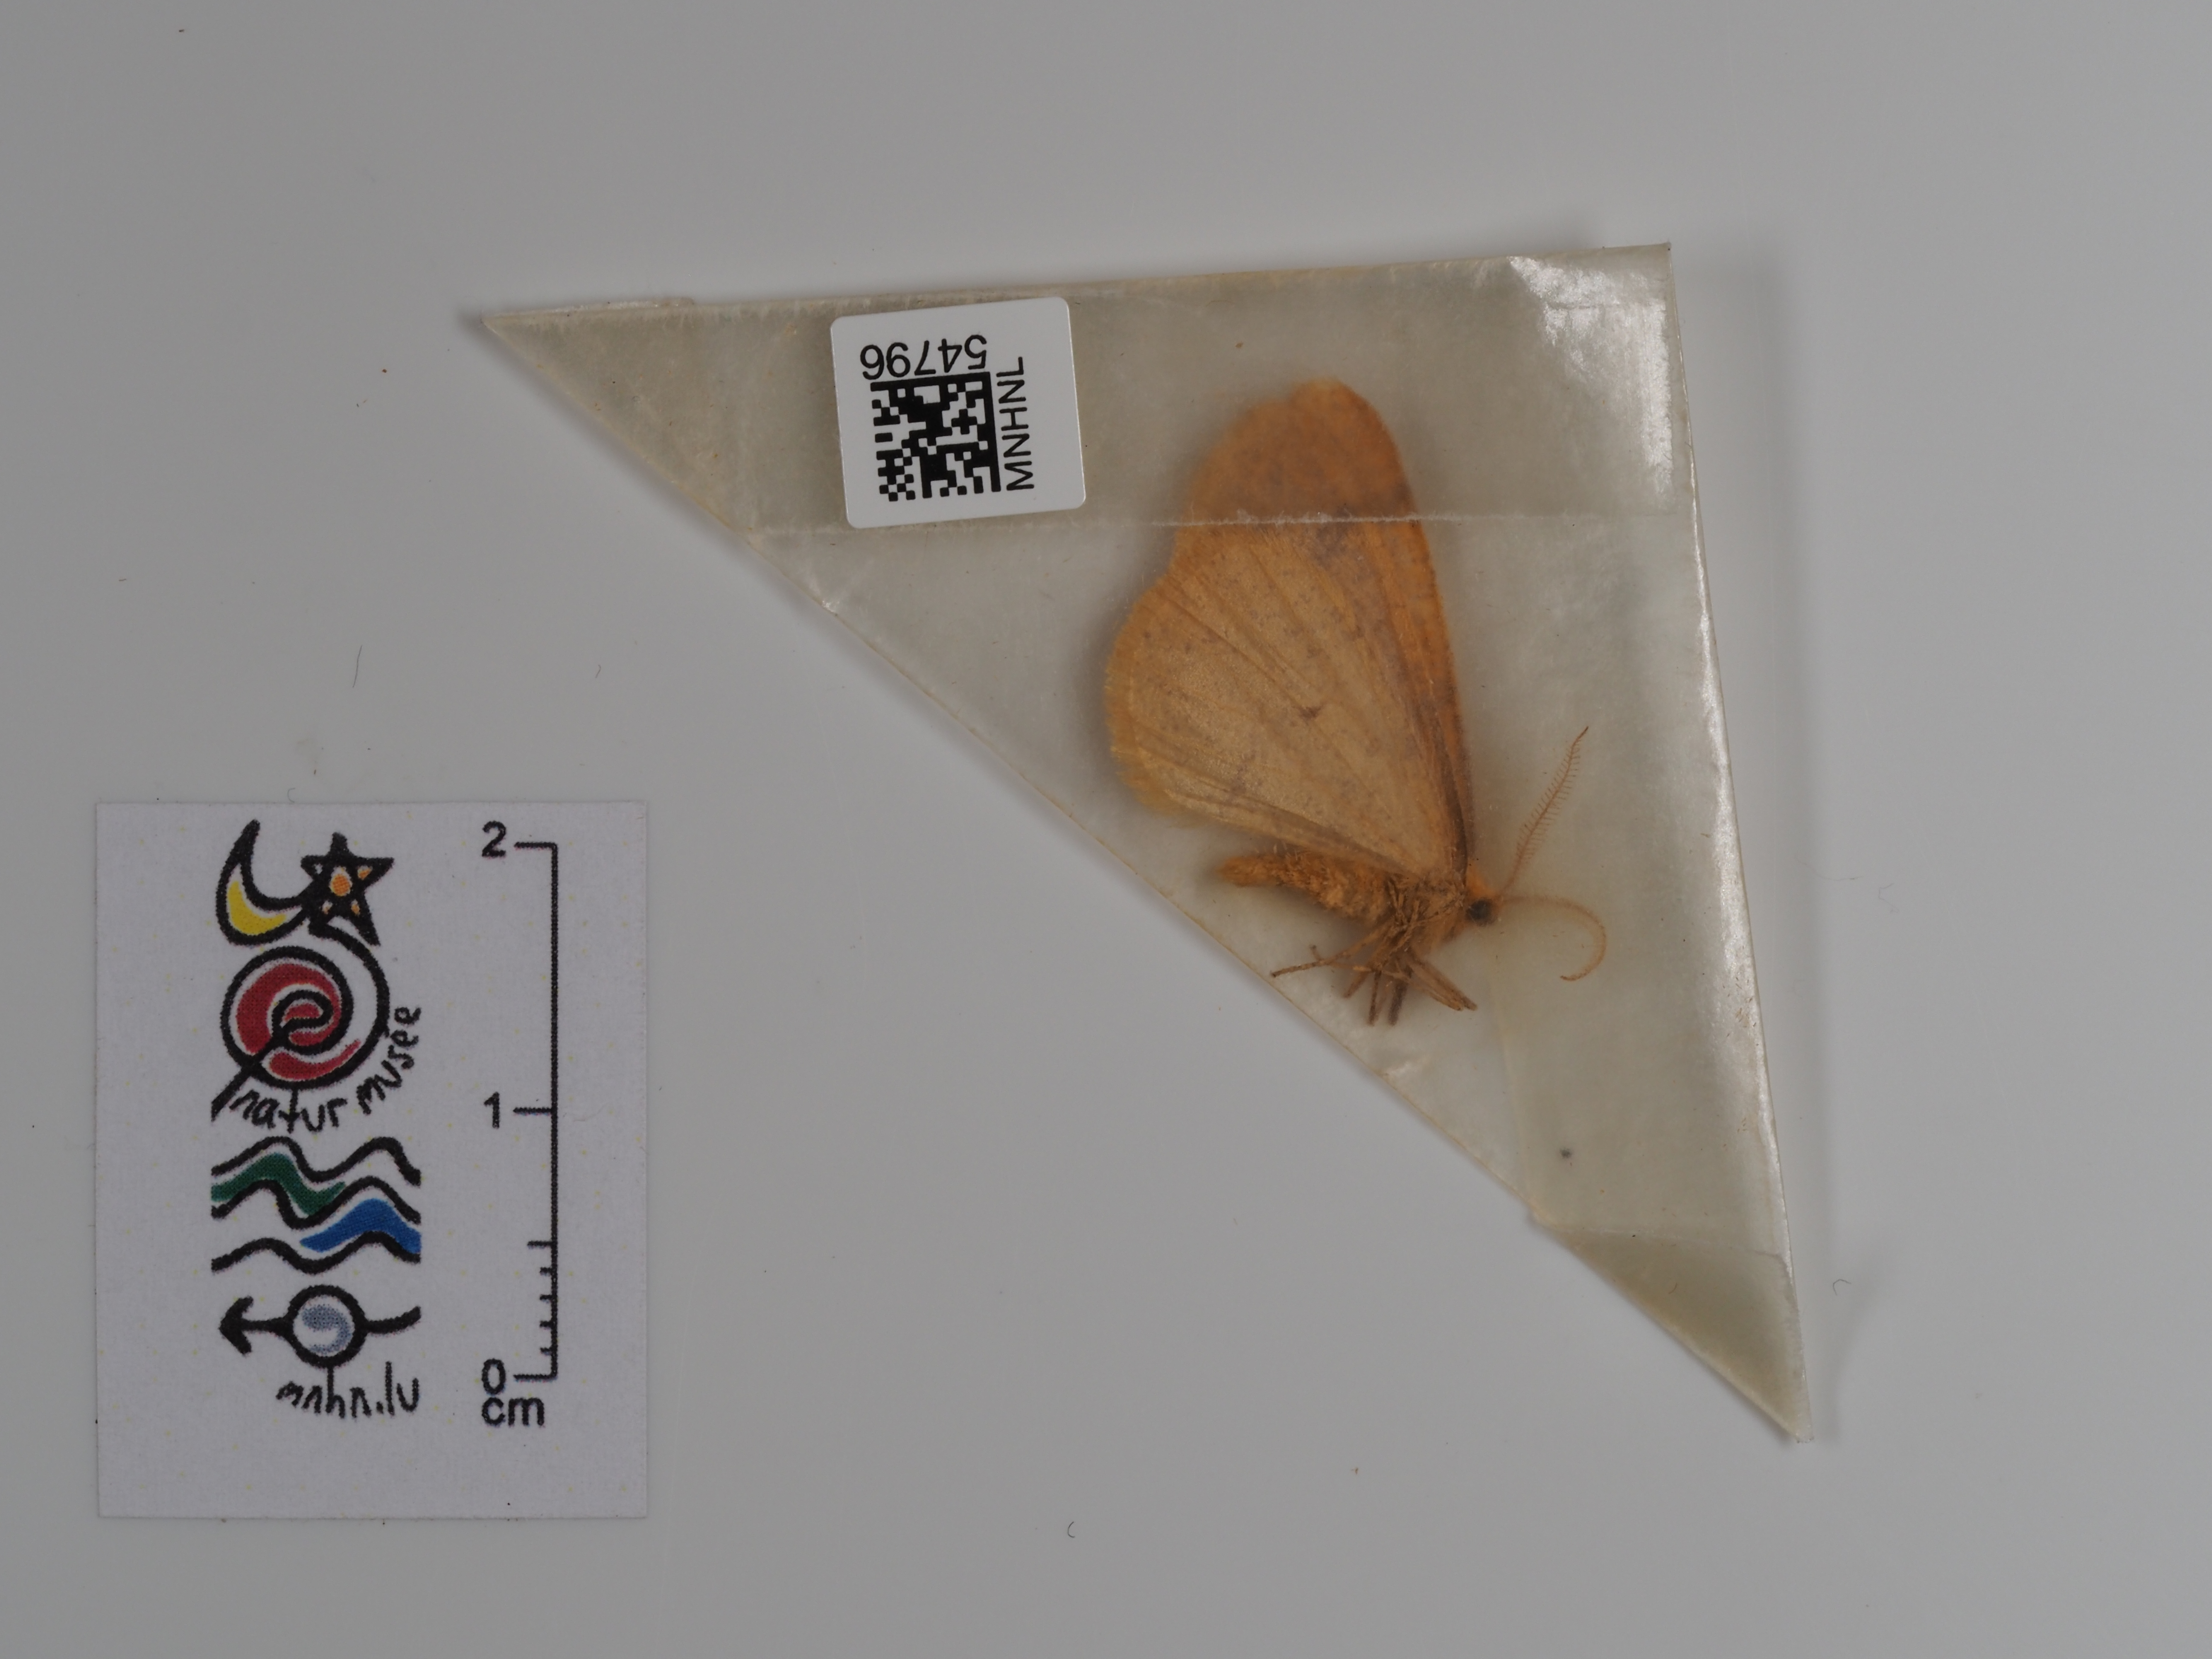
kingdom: Animalia
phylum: Arthropoda
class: Insecta
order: Lepidoptera
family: Geometridae
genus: Agriopis
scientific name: Agriopis aurantiaria
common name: Scarce umber
